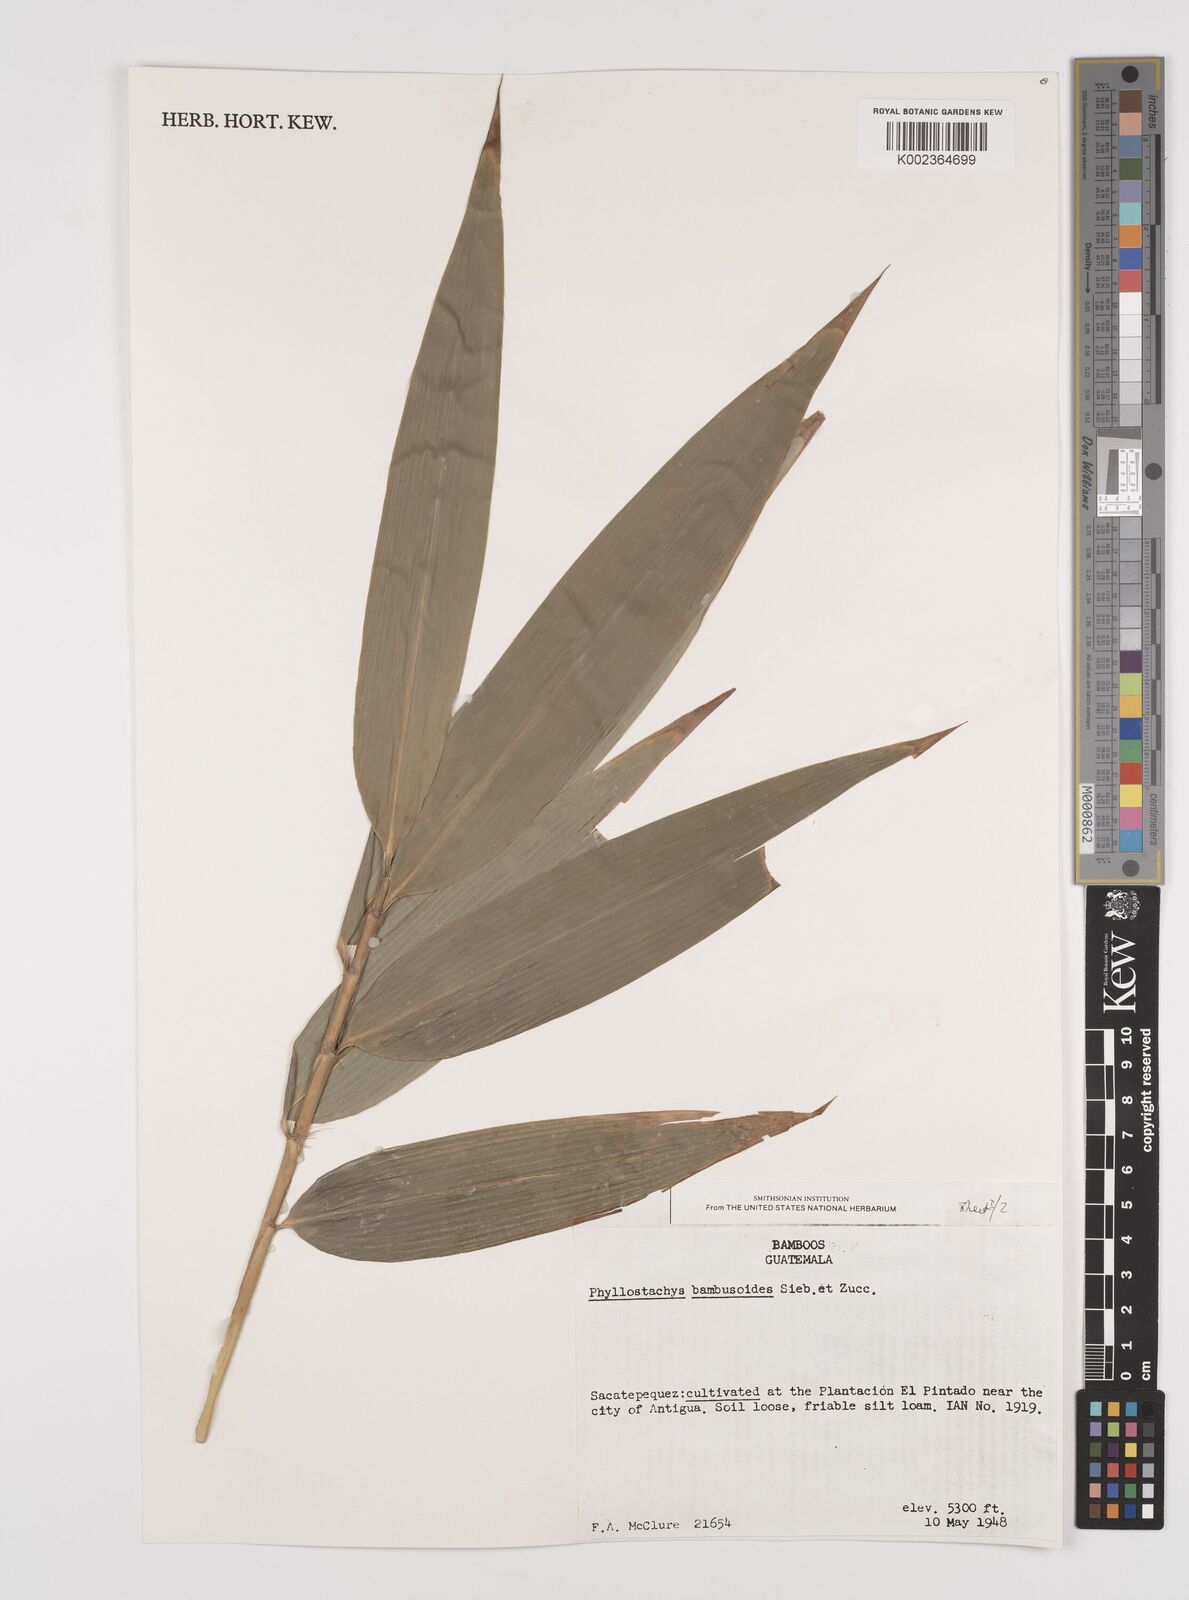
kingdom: Plantae
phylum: Tracheophyta
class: Liliopsida
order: Poales
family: Poaceae
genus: Phyllostachys
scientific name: Phyllostachys reticulata
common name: Bamboo
